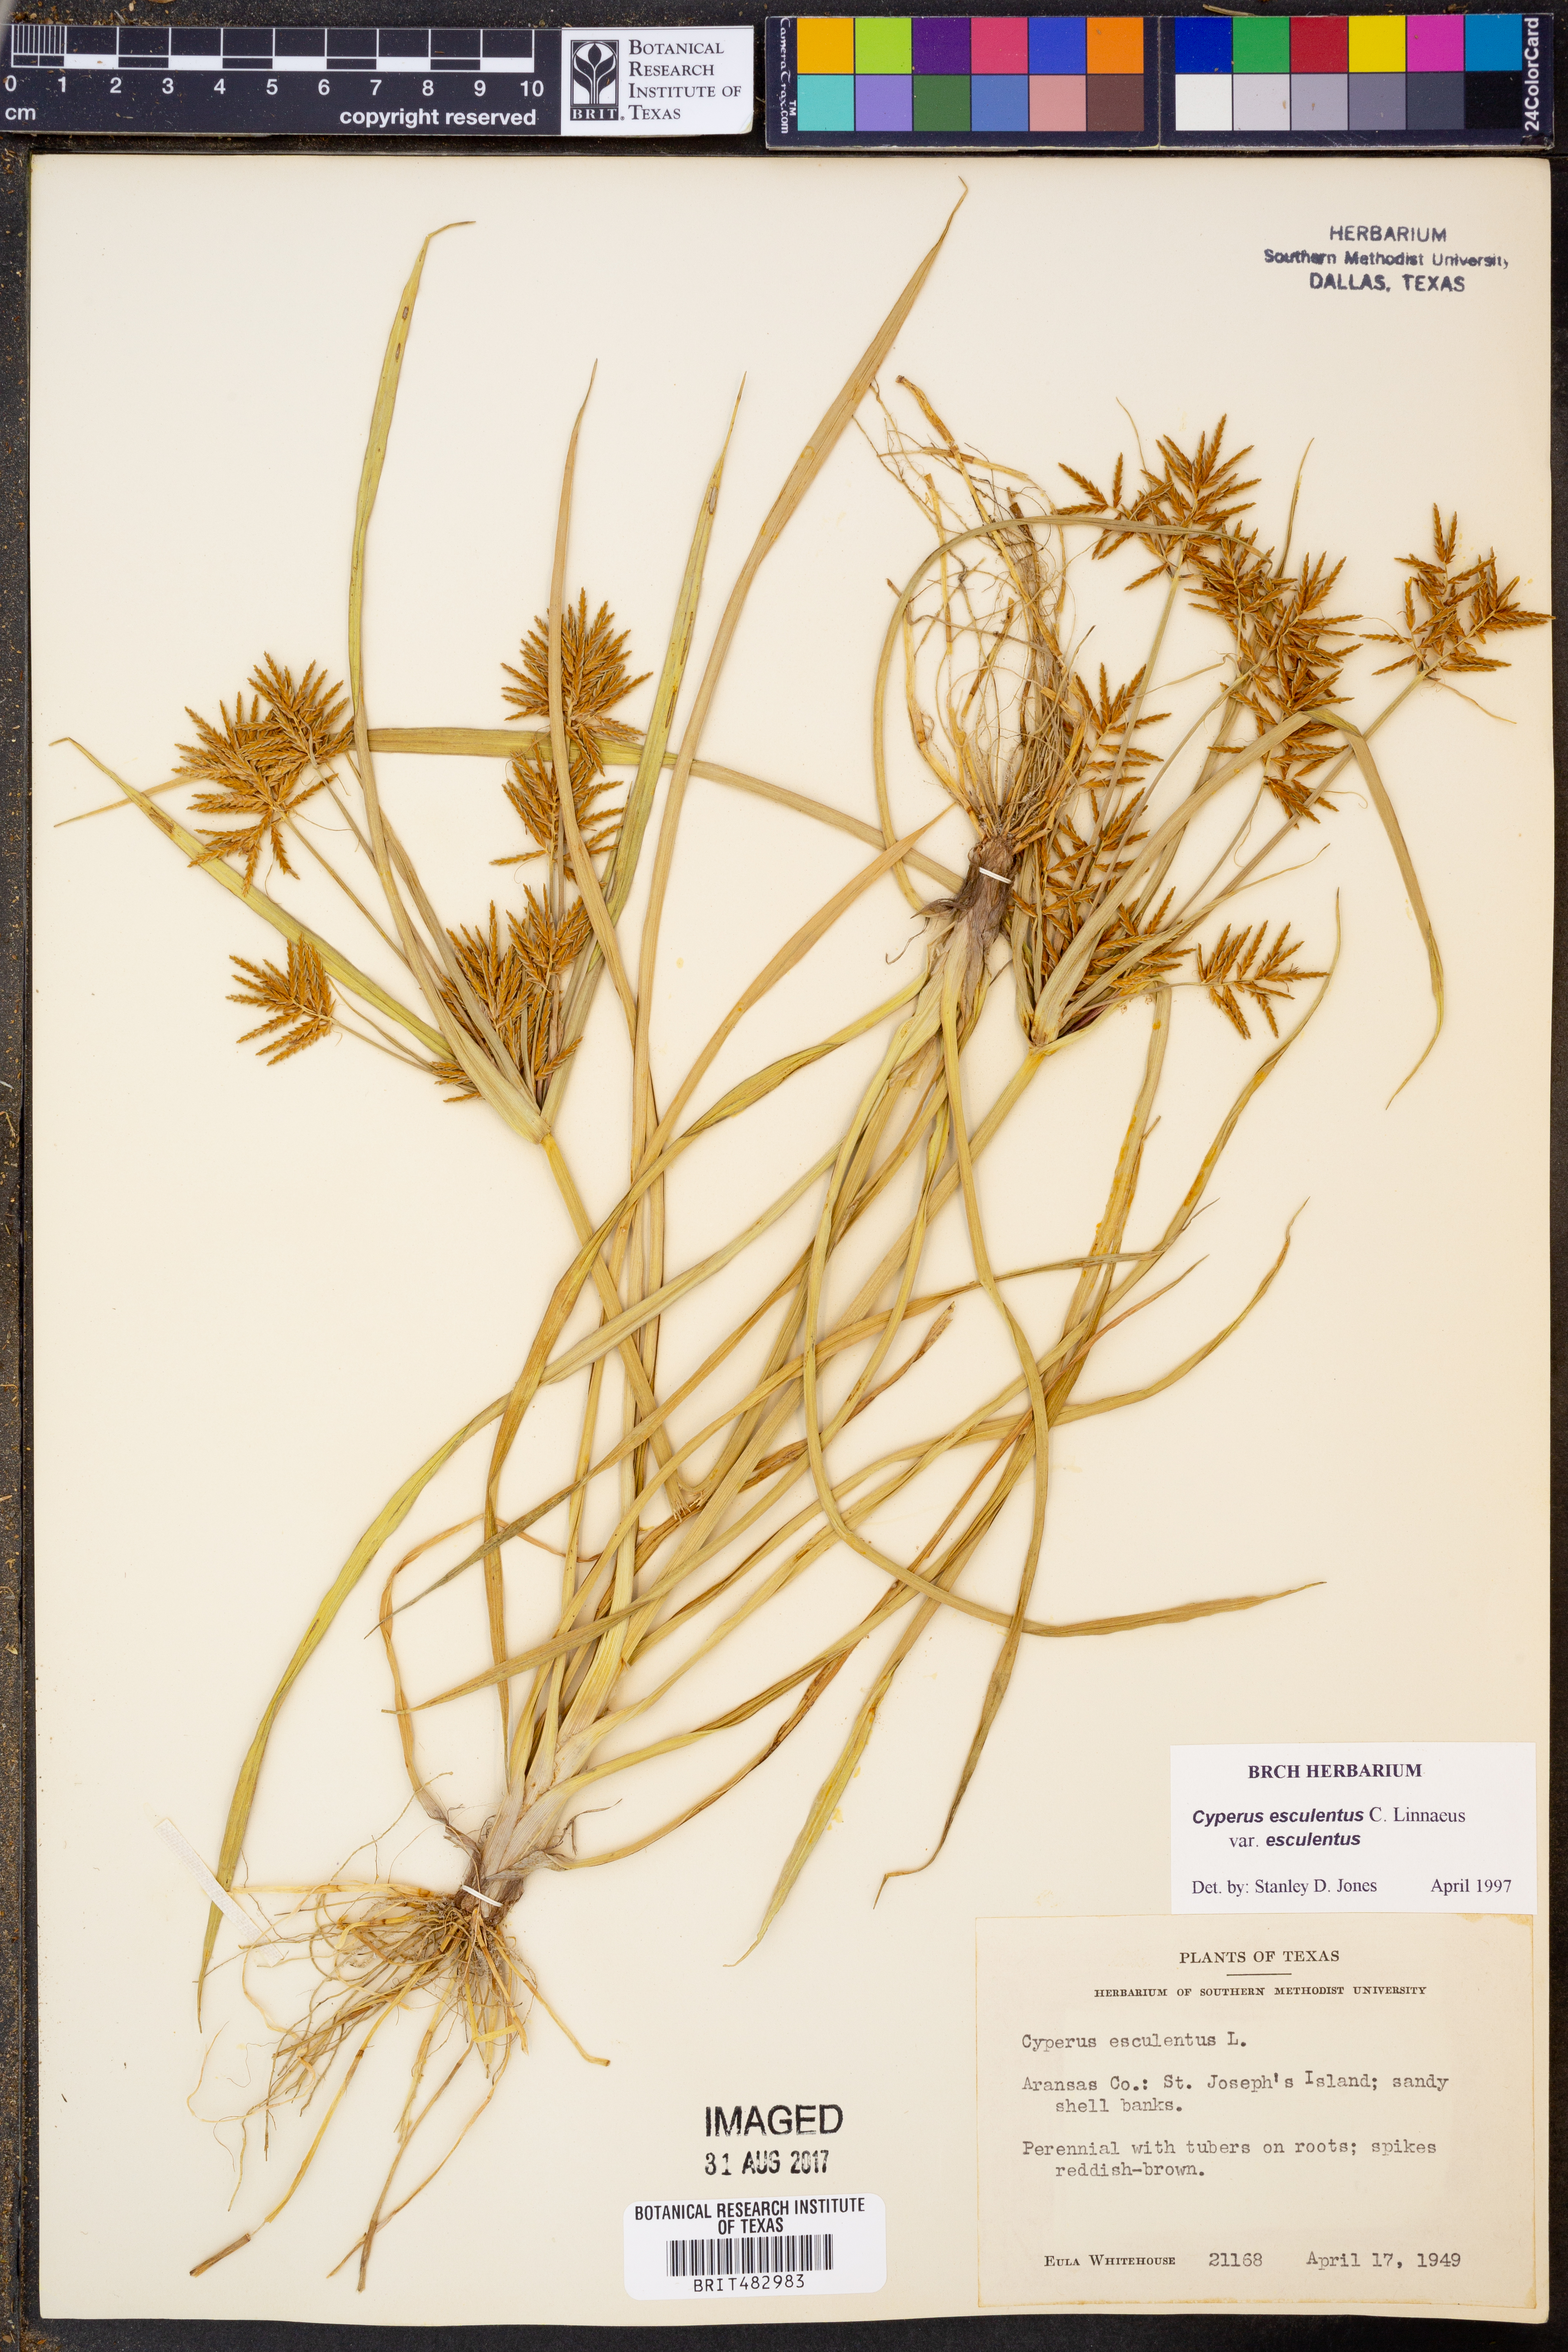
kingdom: Plantae
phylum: Tracheophyta
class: Liliopsida
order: Poales
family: Cyperaceae
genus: Cyperus
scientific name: Cyperus esculentus
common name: Yellow nutsedge
